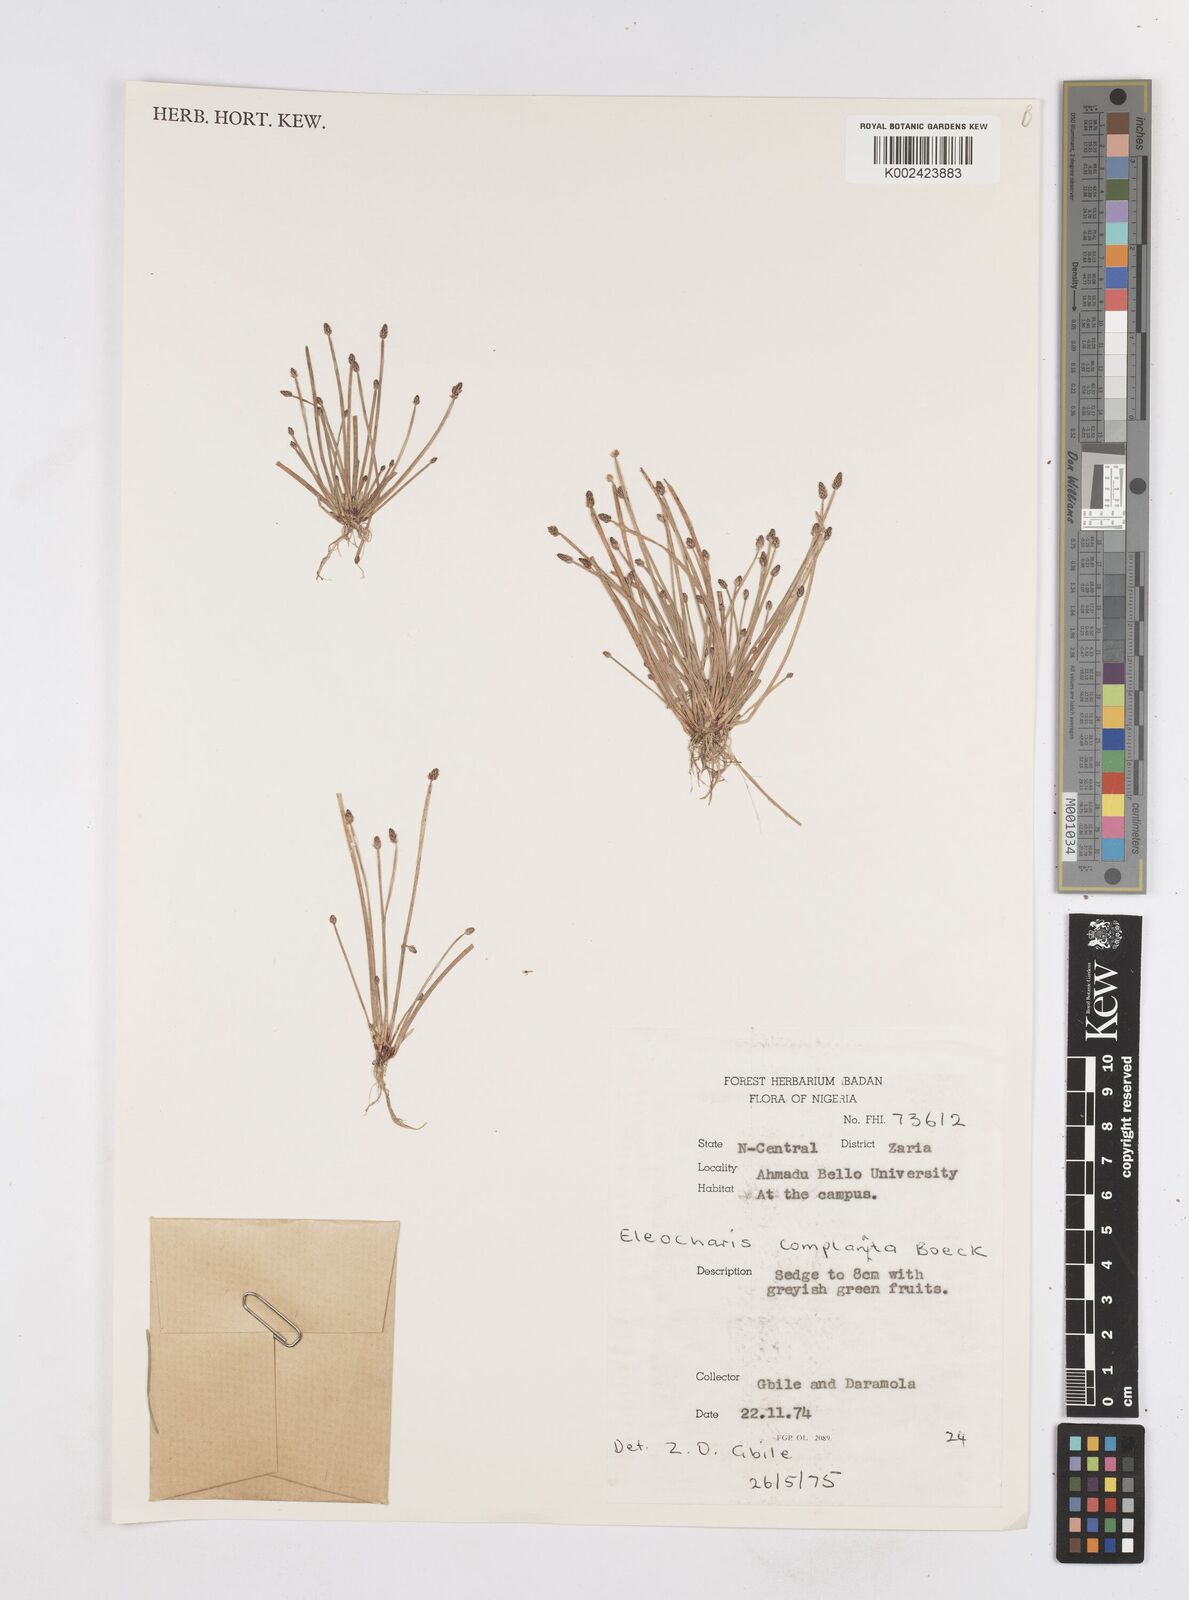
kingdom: Plantae
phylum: Tracheophyta
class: Liliopsida
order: Poales
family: Cyperaceae
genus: Eleocharis
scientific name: Eleocharis complanata
